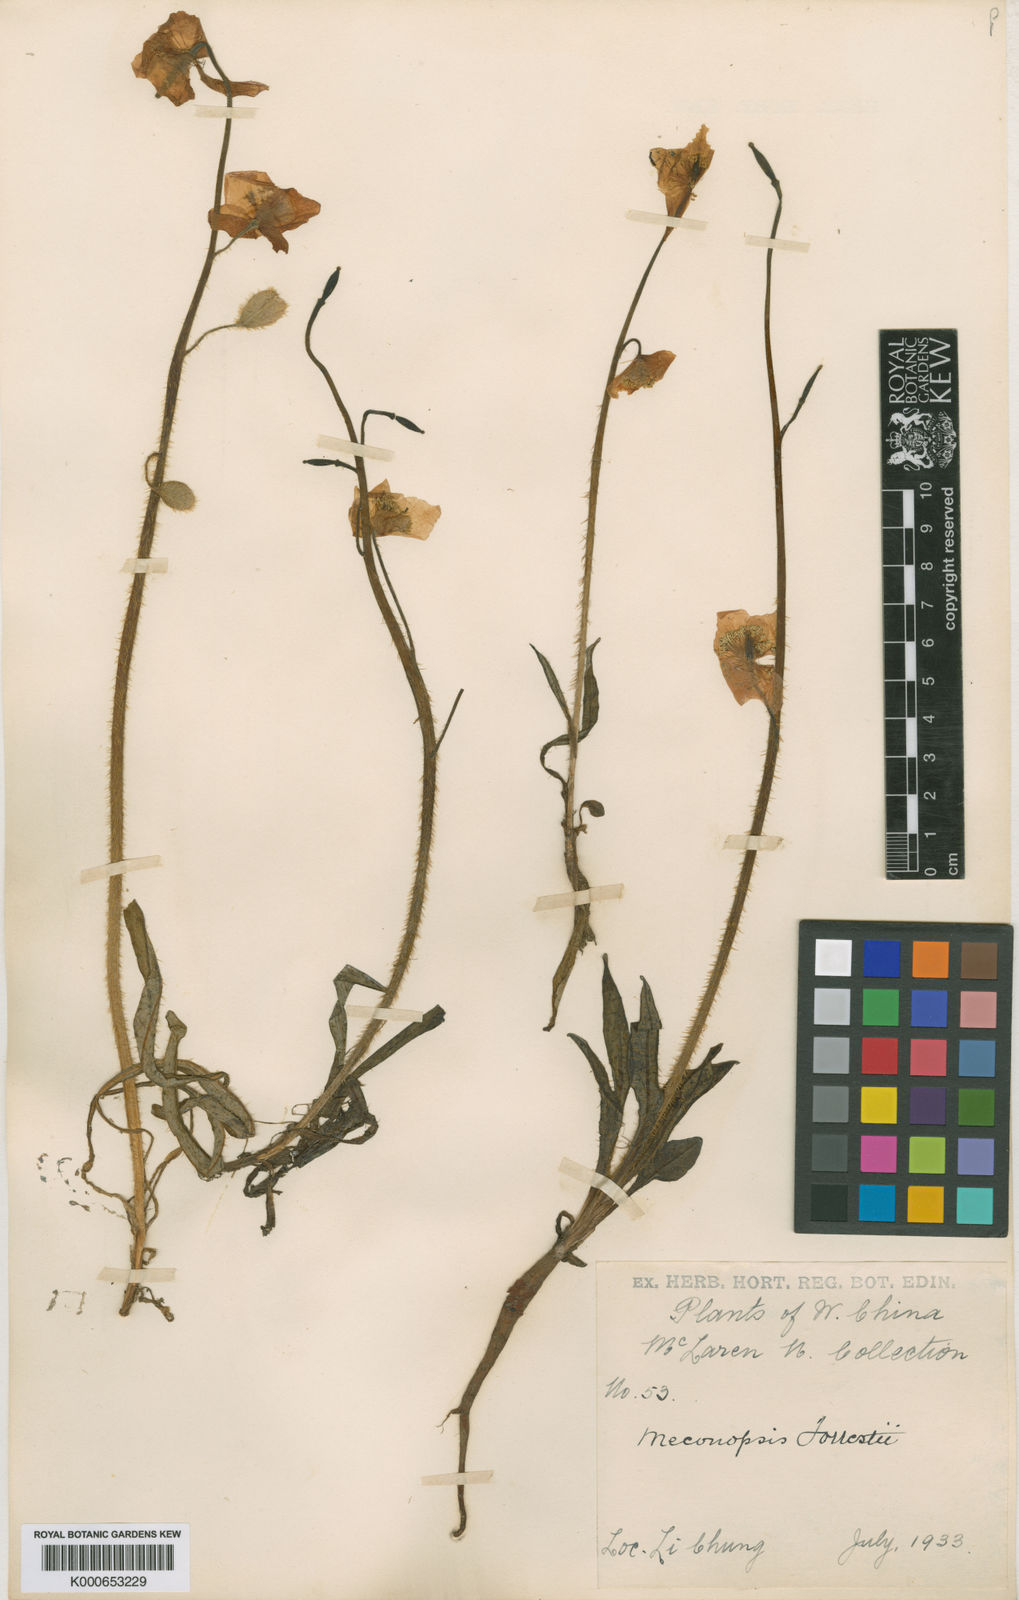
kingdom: Plantae
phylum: Tracheophyta
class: Magnoliopsida
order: Ranunculales
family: Papaveraceae
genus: Meconopsis
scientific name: Meconopsis forrestii
